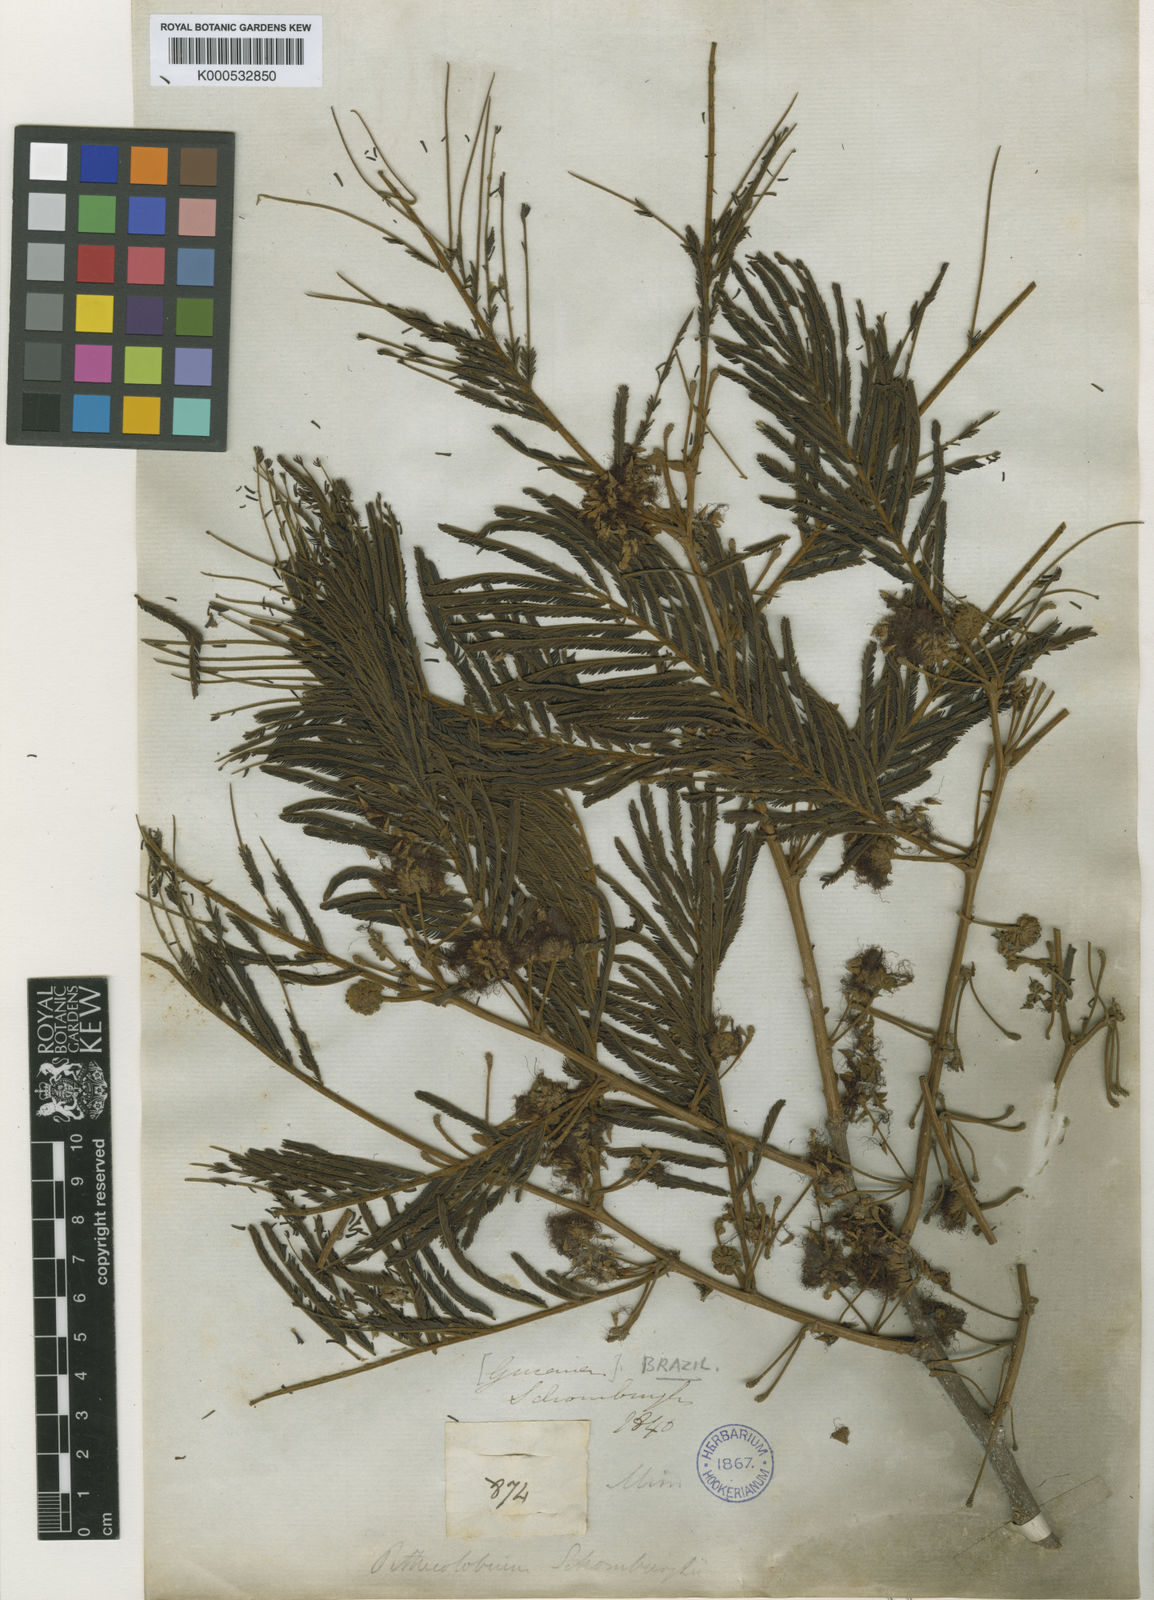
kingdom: Plantae
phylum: Tracheophyta
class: Magnoliopsida
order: Fabales
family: Fabaceae
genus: Enterolobium
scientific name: Enterolobium schomburgkii
